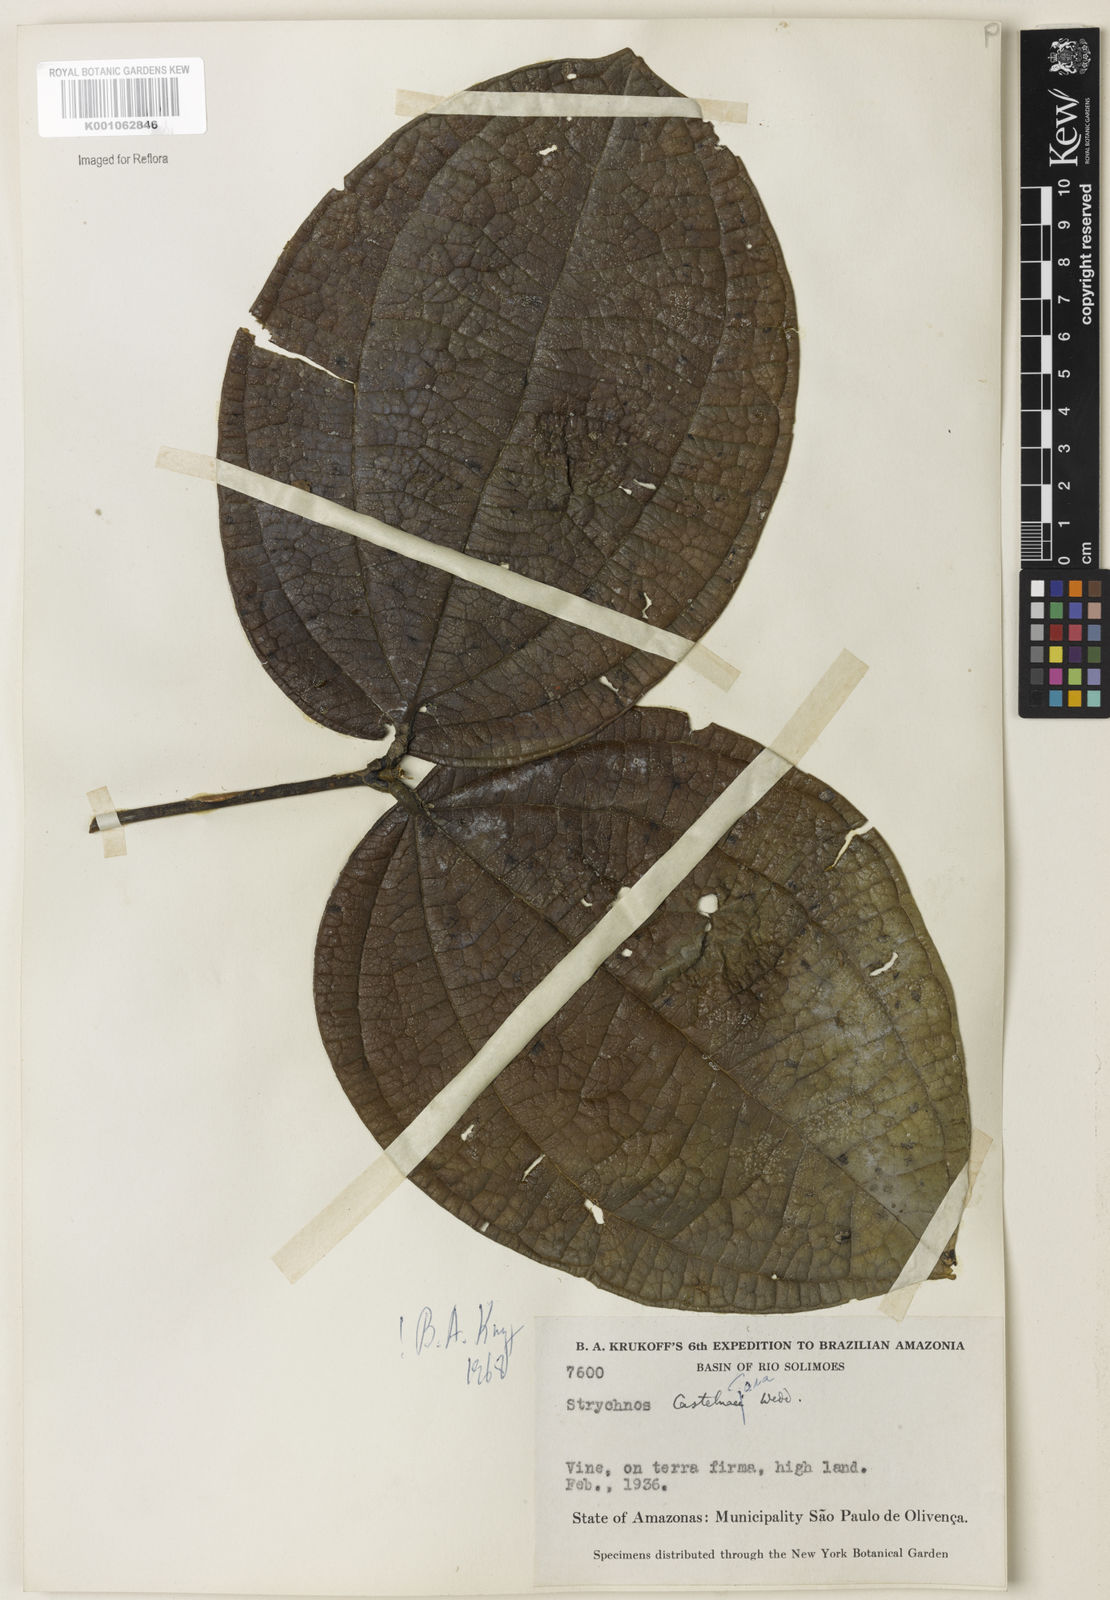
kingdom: Plantae
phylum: Tracheophyta
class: Magnoliopsida
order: Gentianales
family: Loganiaceae
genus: Strychnos
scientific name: Strychnos
